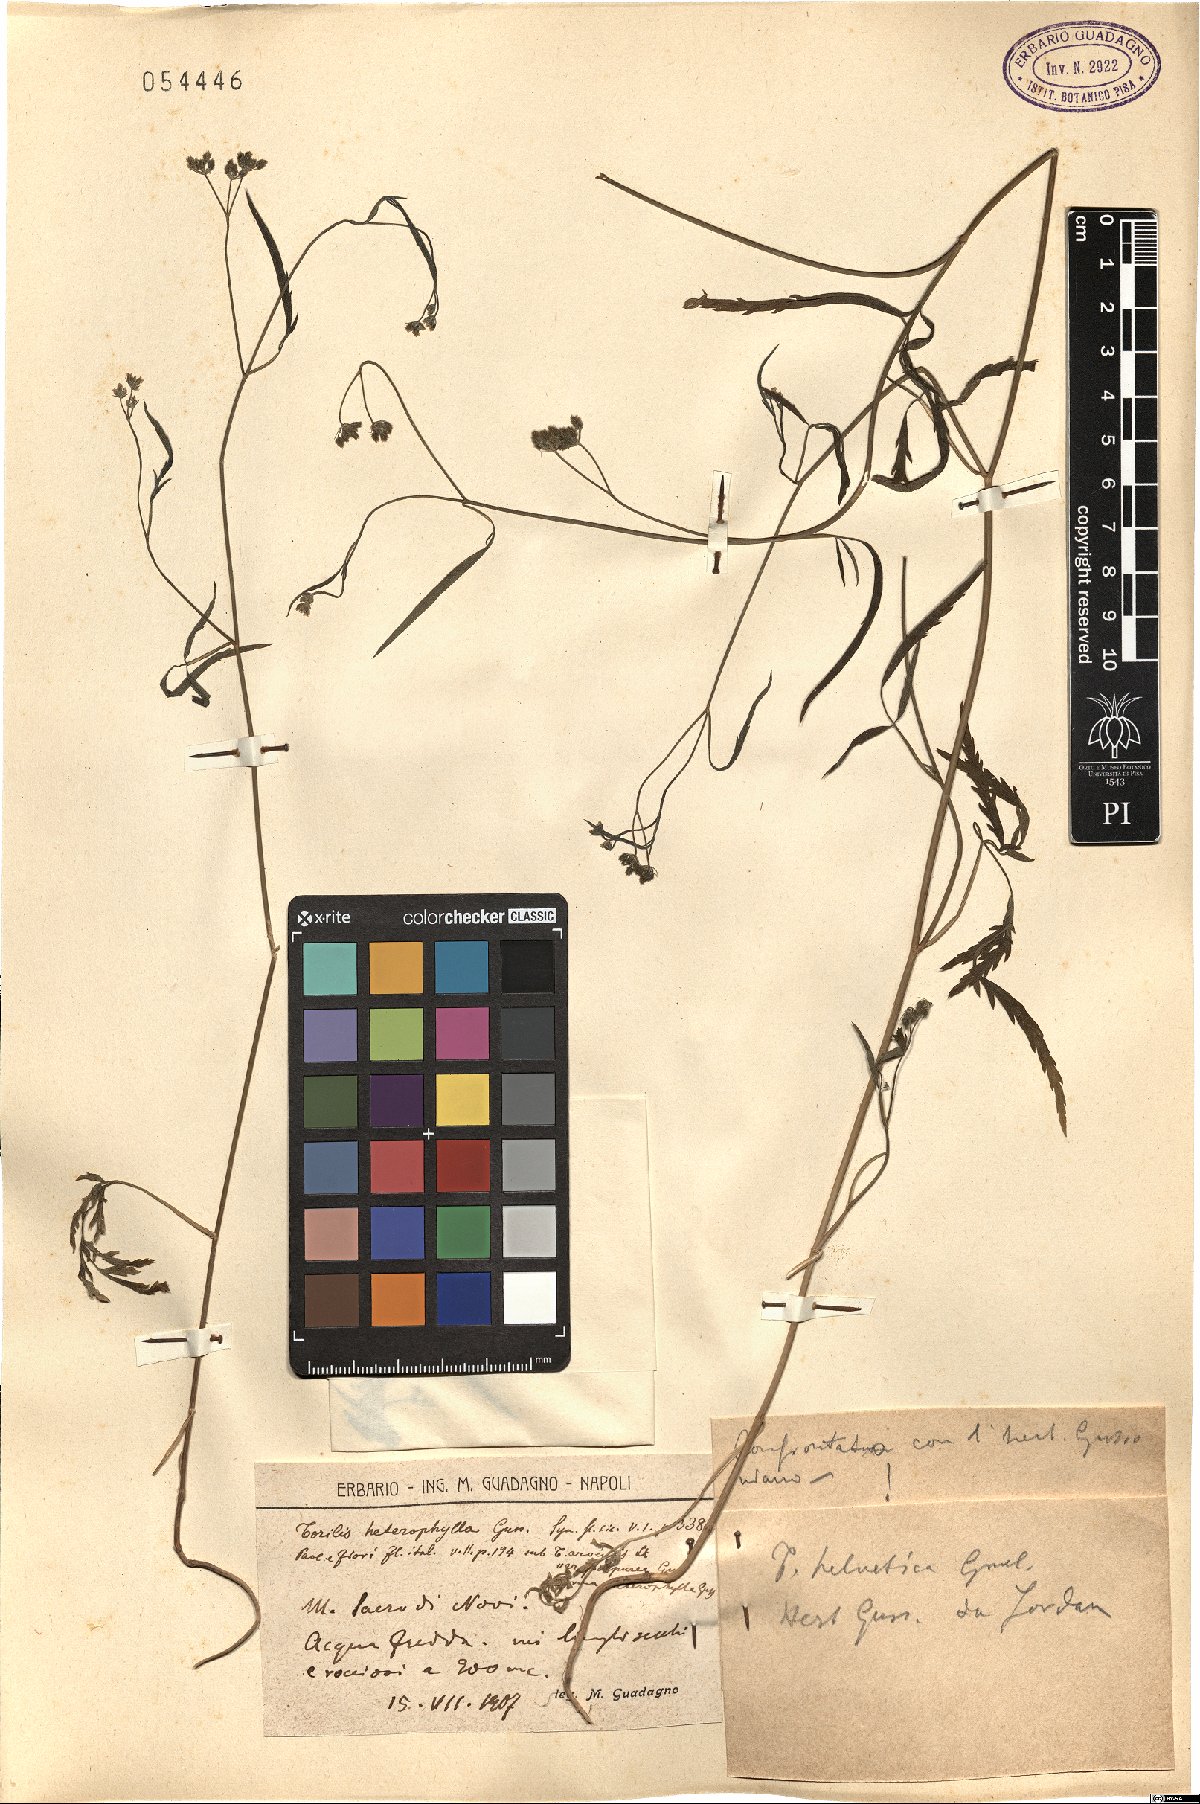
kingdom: Plantae
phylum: Tracheophyta
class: Magnoliopsida
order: Apiales
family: Apiaceae
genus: Torilis
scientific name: Torilis africana
